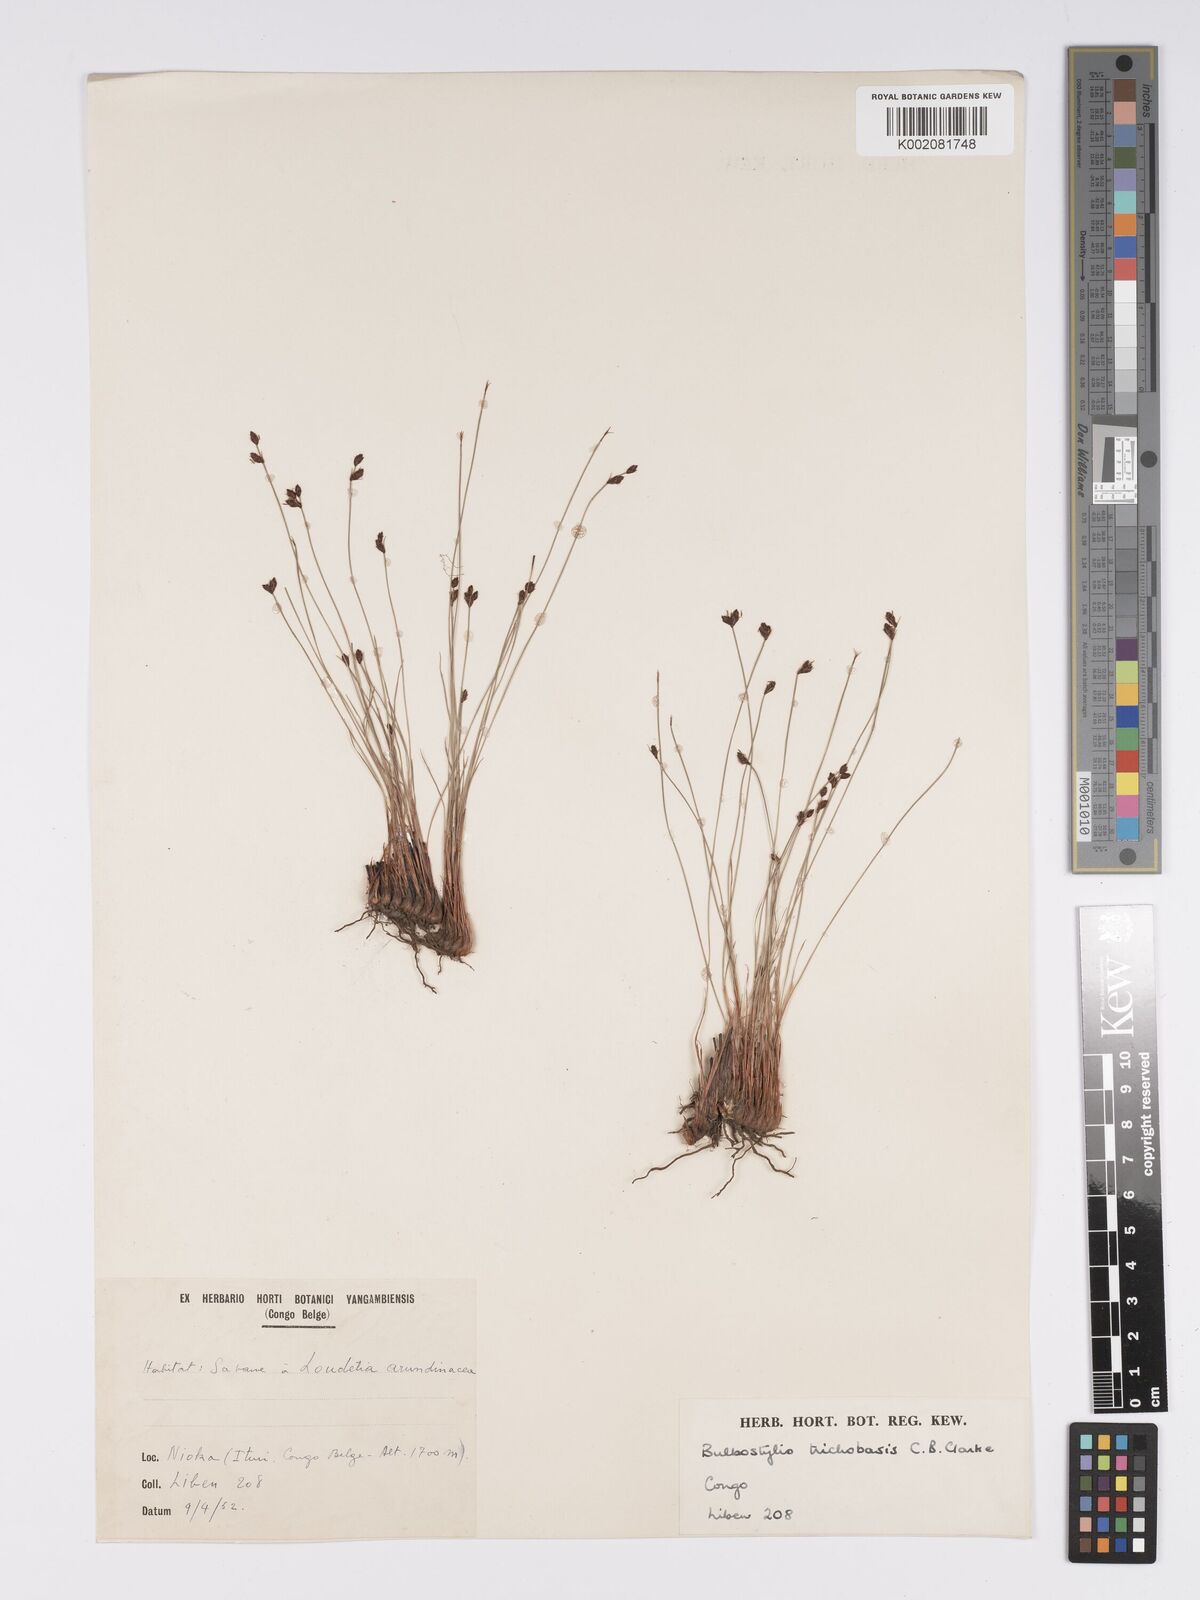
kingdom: Plantae
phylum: Tracheophyta
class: Liliopsida
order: Poales
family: Cyperaceae
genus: Bulbostylis
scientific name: Bulbostylis oritrephes
